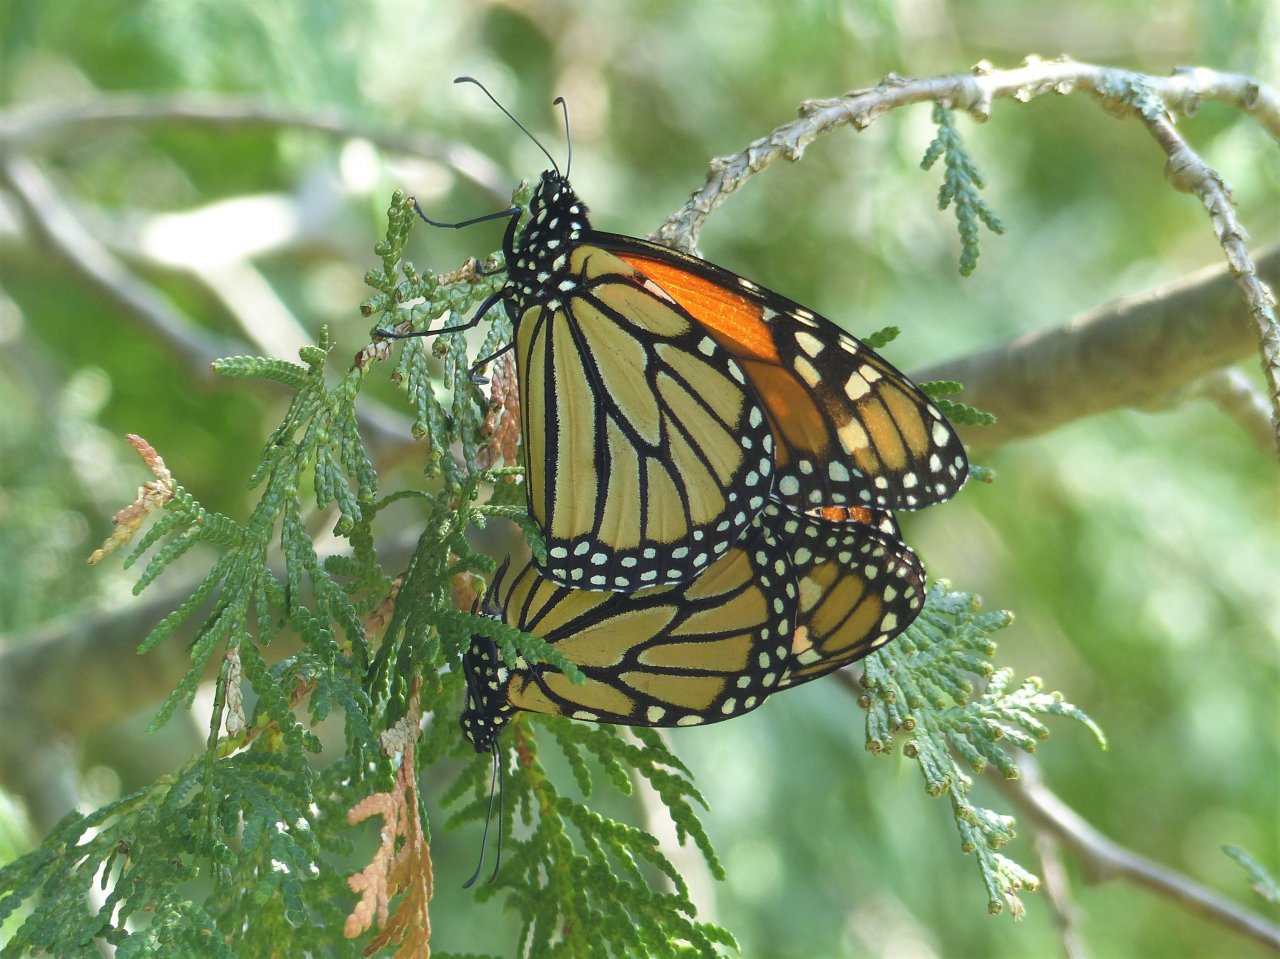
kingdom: Animalia
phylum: Arthropoda
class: Insecta
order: Lepidoptera
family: Nymphalidae
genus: Danaus
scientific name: Danaus plexippus
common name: Monarch
